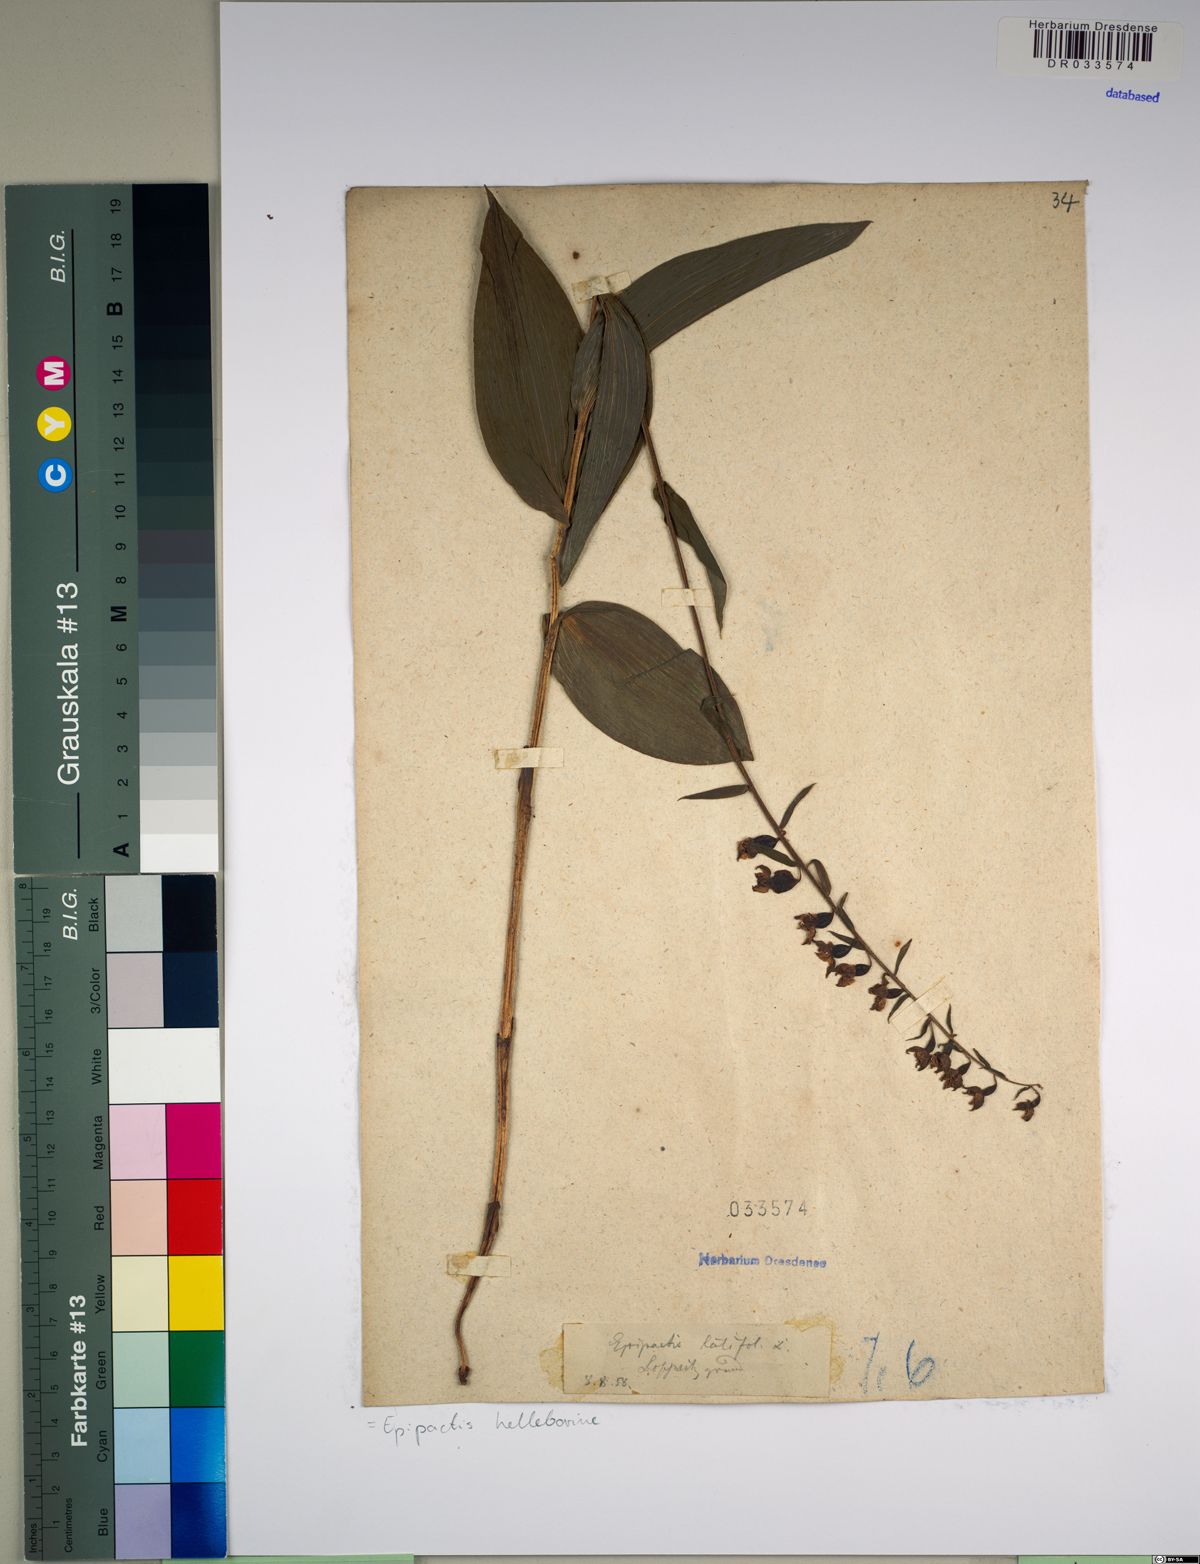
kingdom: Plantae
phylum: Tracheophyta
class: Liliopsida
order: Asparagales
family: Orchidaceae
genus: Epipactis
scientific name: Epipactis helleborine
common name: Broad-leaved helleborine
